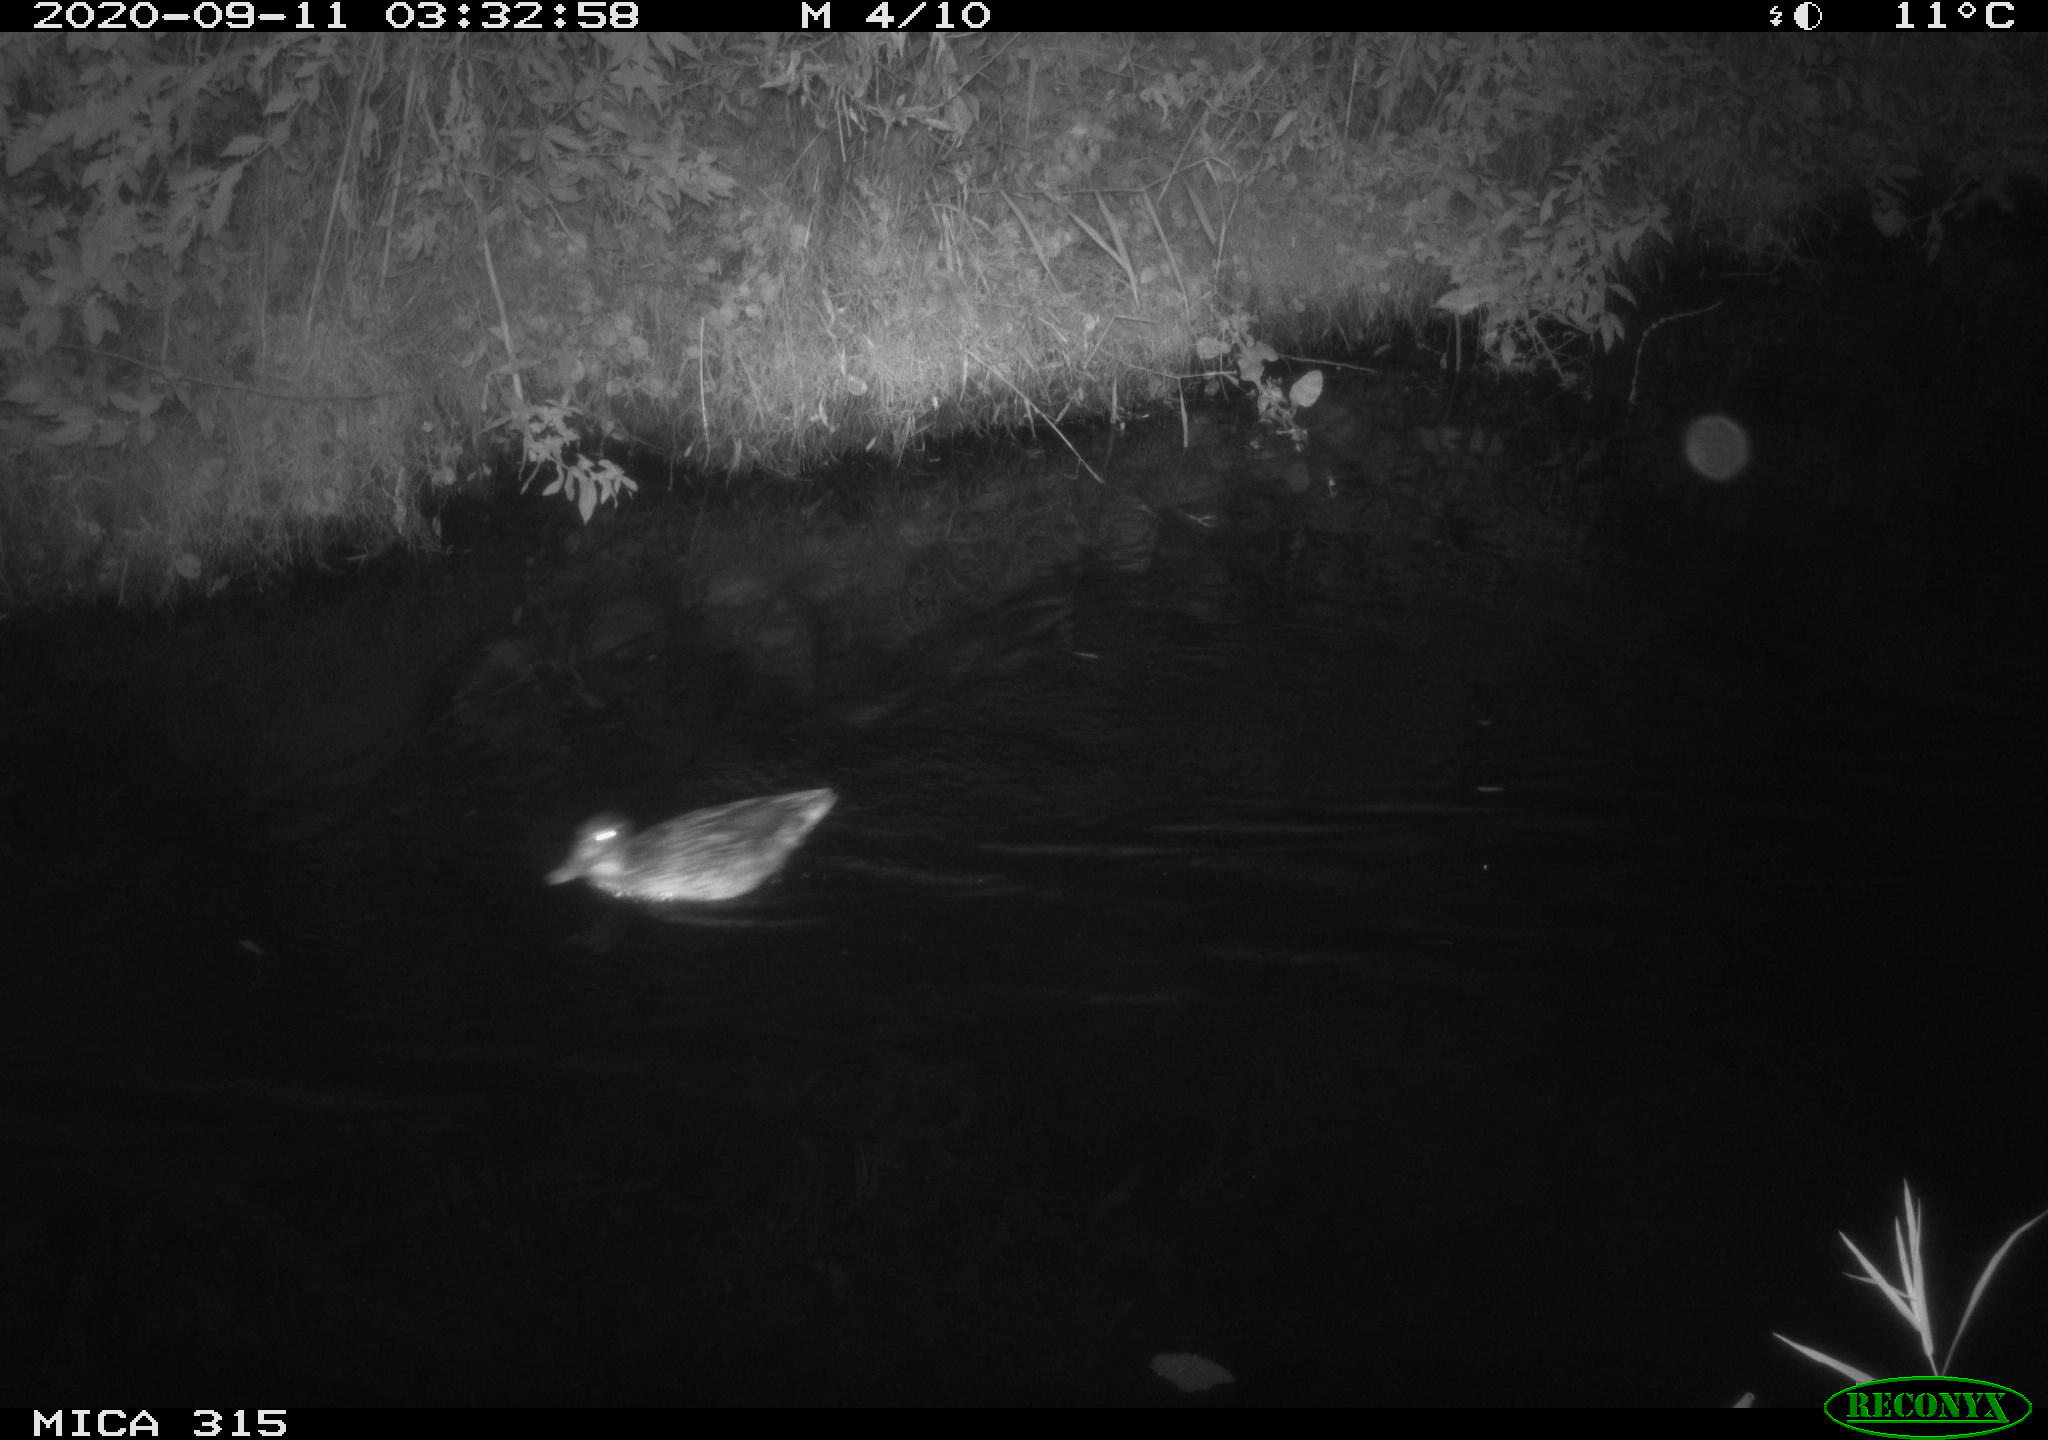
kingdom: Animalia
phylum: Chordata
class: Aves
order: Anseriformes
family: Anatidae
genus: Anas
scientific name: Anas platyrhynchos
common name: Mallard
